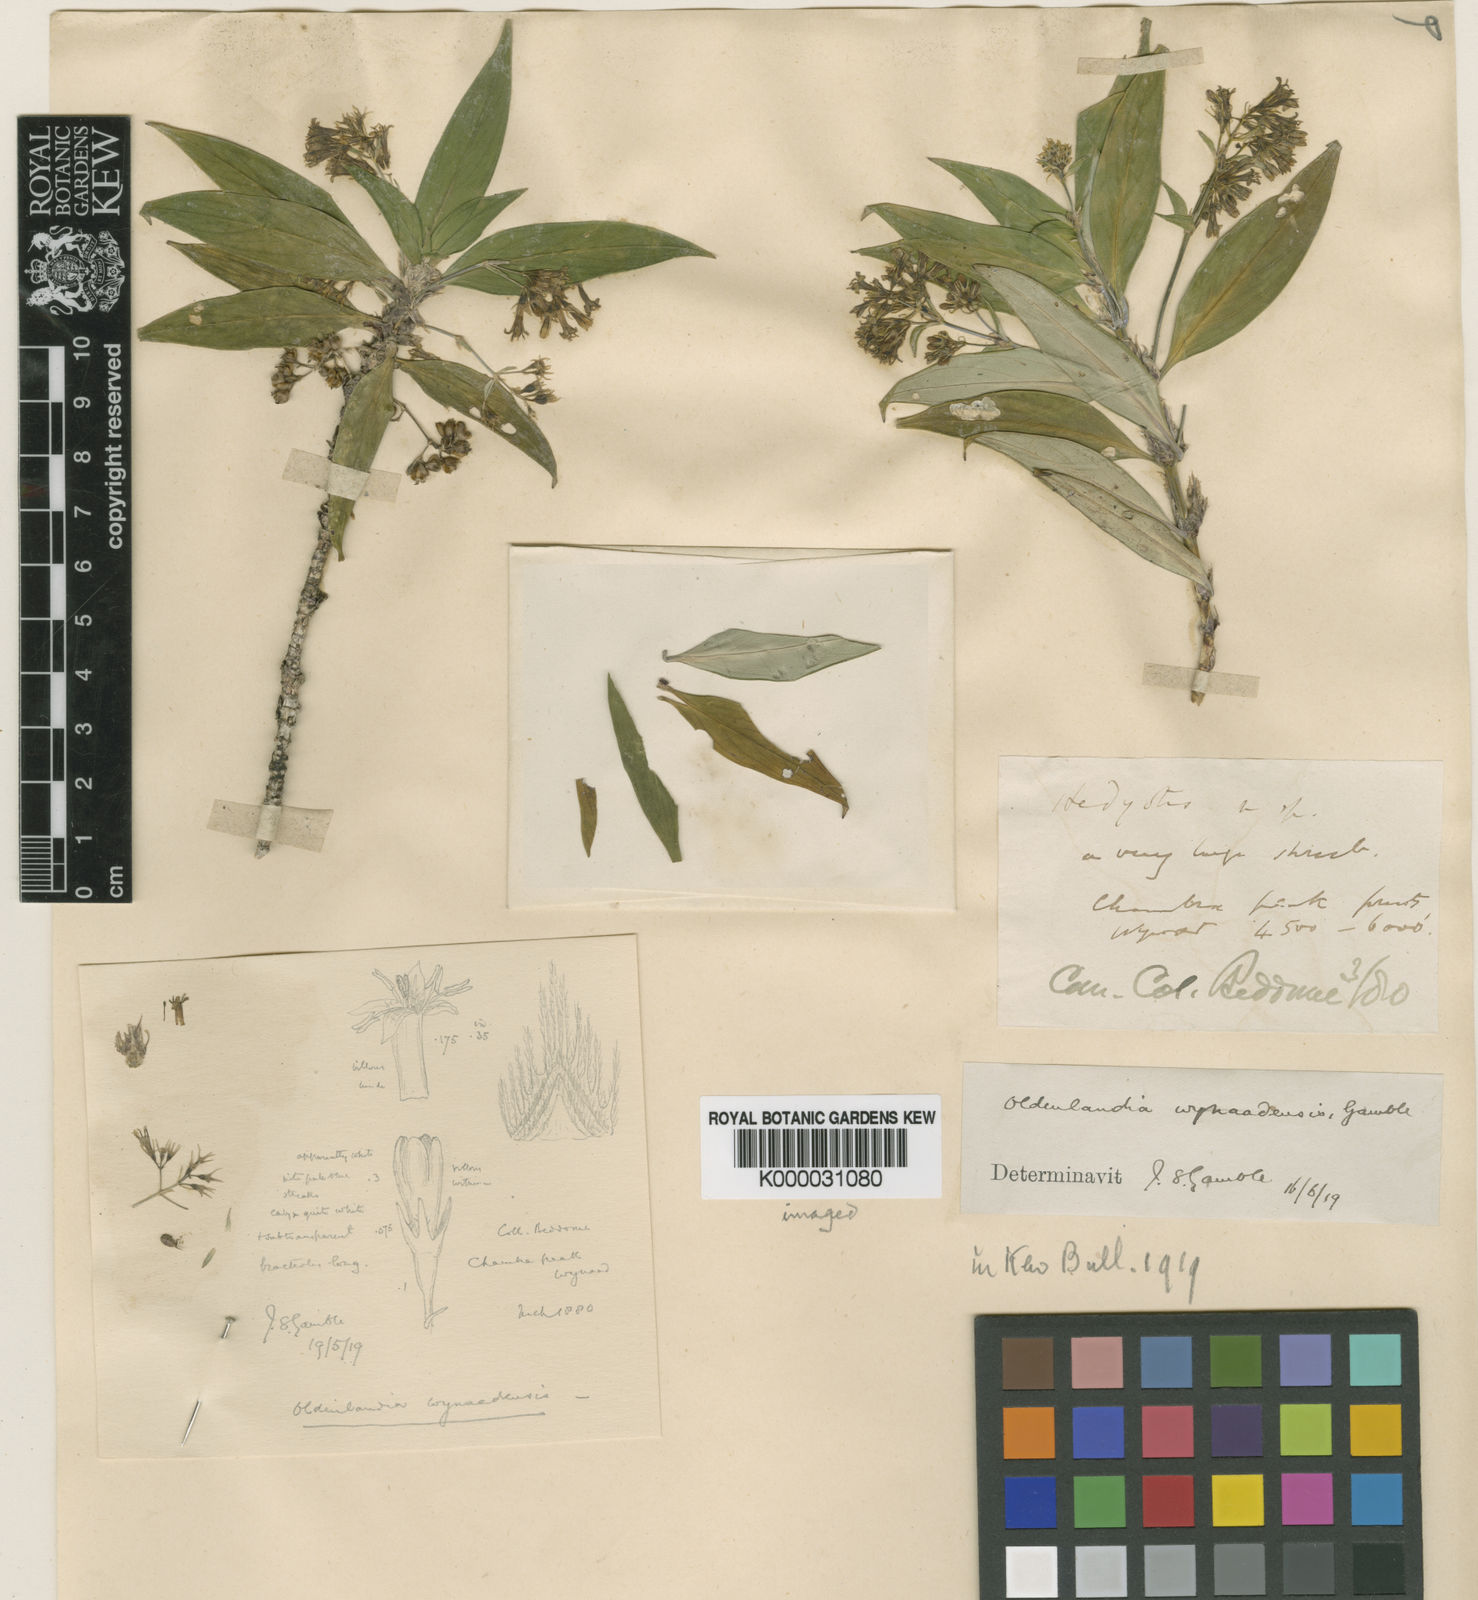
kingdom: Plantae
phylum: Tracheophyta
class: Magnoliopsida
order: Gentianales
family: Rubiaceae
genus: Hedyotis
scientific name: Hedyotis leschenaultiana
